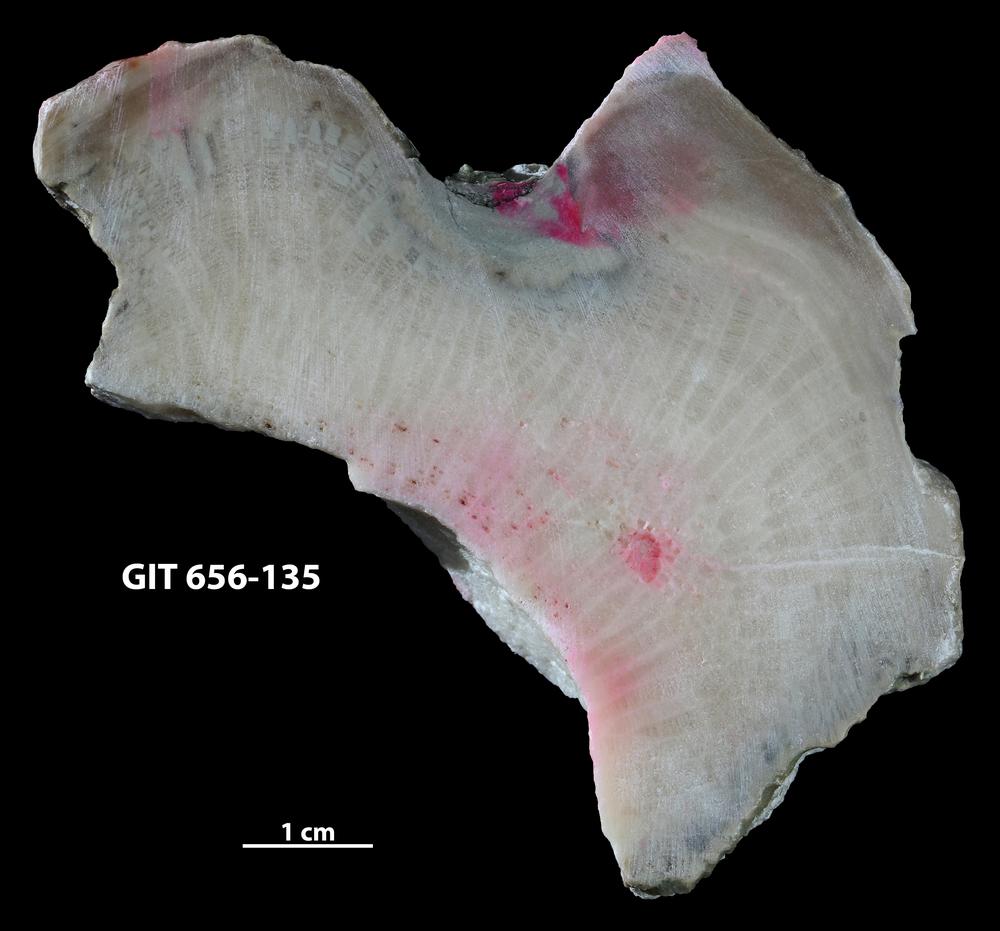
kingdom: Animalia
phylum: Porifera
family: Stromatoporidae
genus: Parallelostroma
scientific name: Parallelostroma
